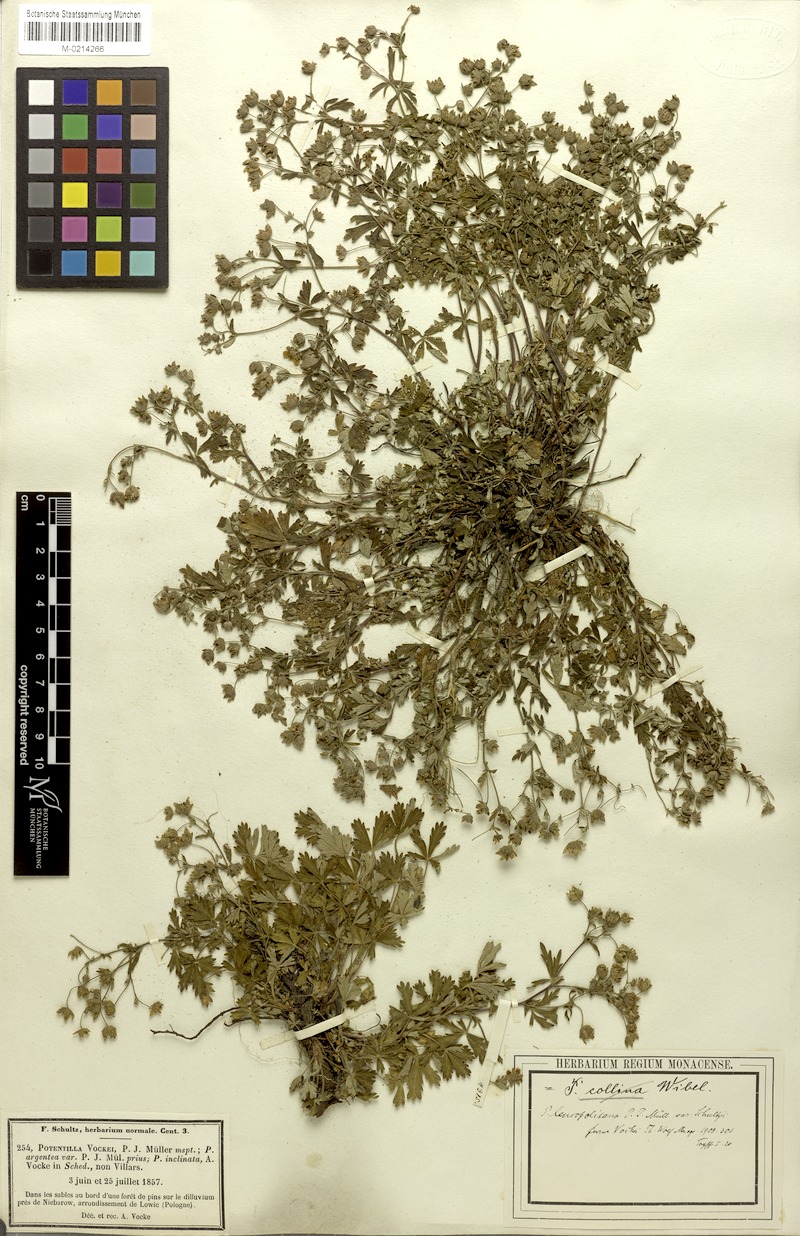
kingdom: Plantae
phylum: Tracheophyta
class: Magnoliopsida
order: Rosales
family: Rosaceae
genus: Potentilla
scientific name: Potentilla collina
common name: Palmleaf cinquefoil
